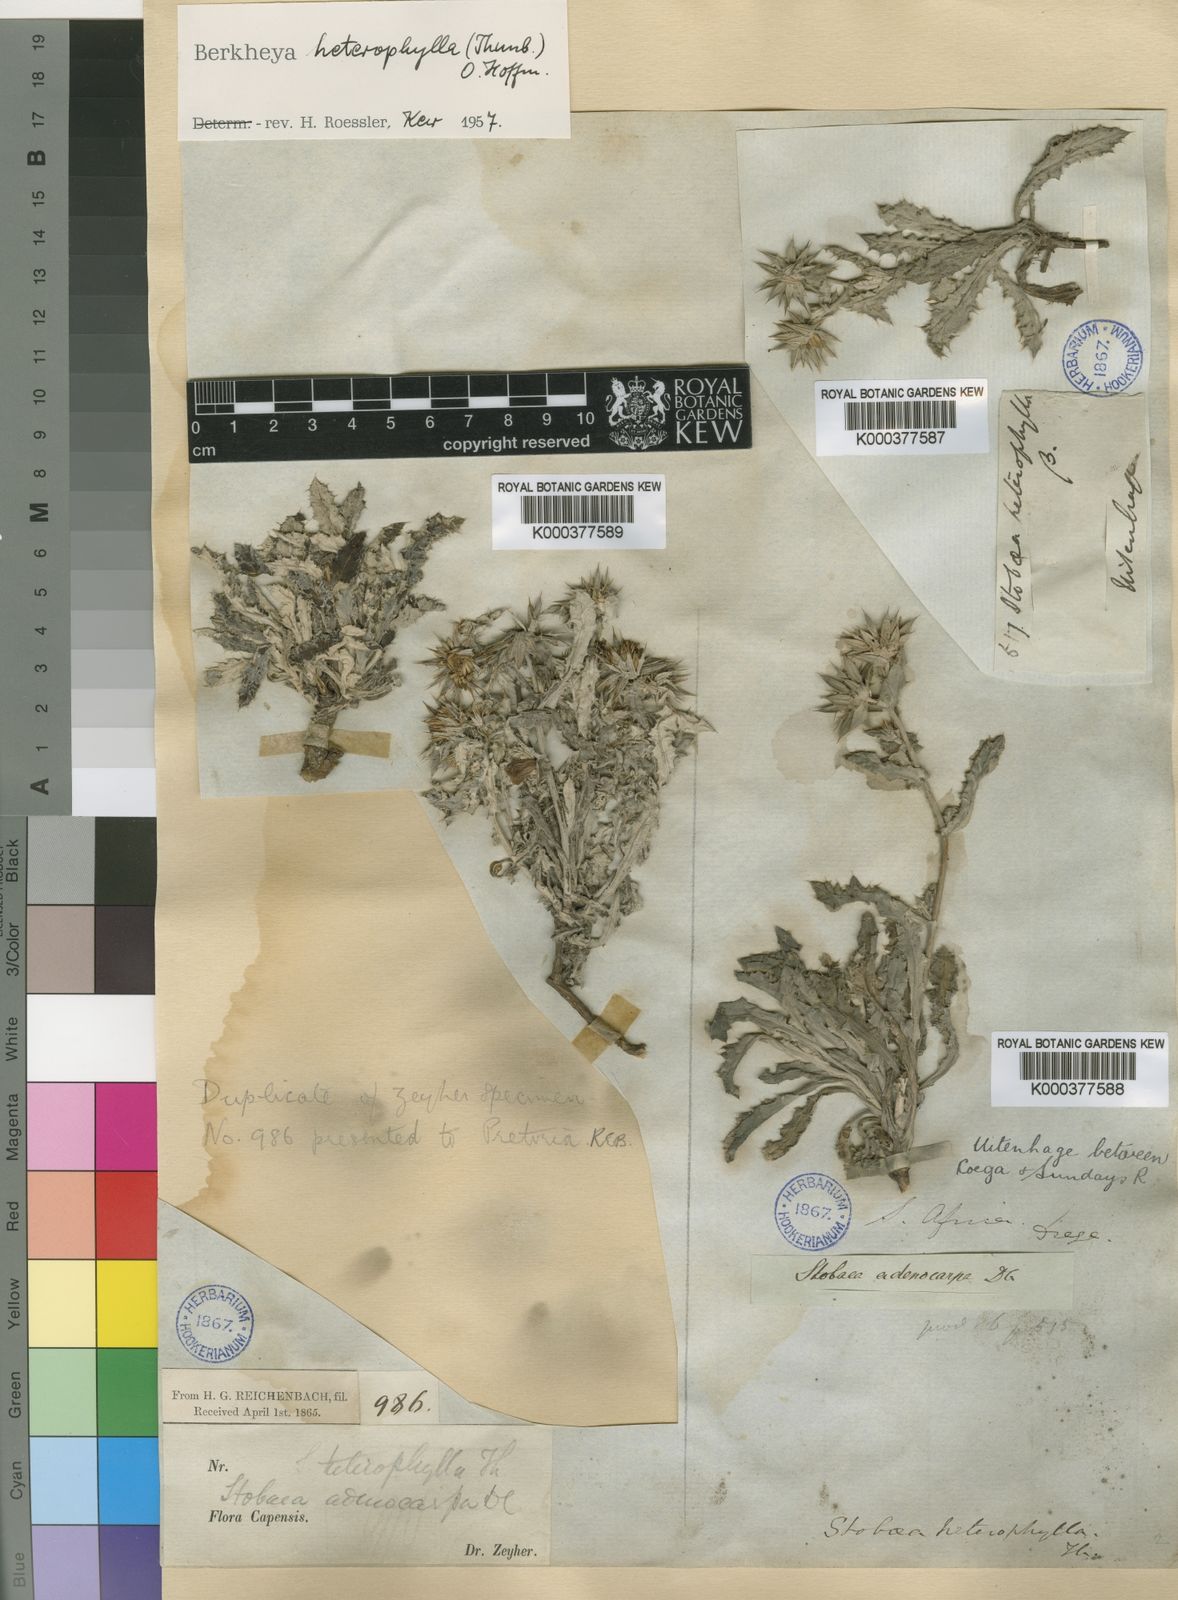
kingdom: Plantae
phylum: Tracheophyta
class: Magnoliopsida
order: Asterales
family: Asteraceae
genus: Berkheya
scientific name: Berkheya heterophylla
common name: Prickly gousblom
